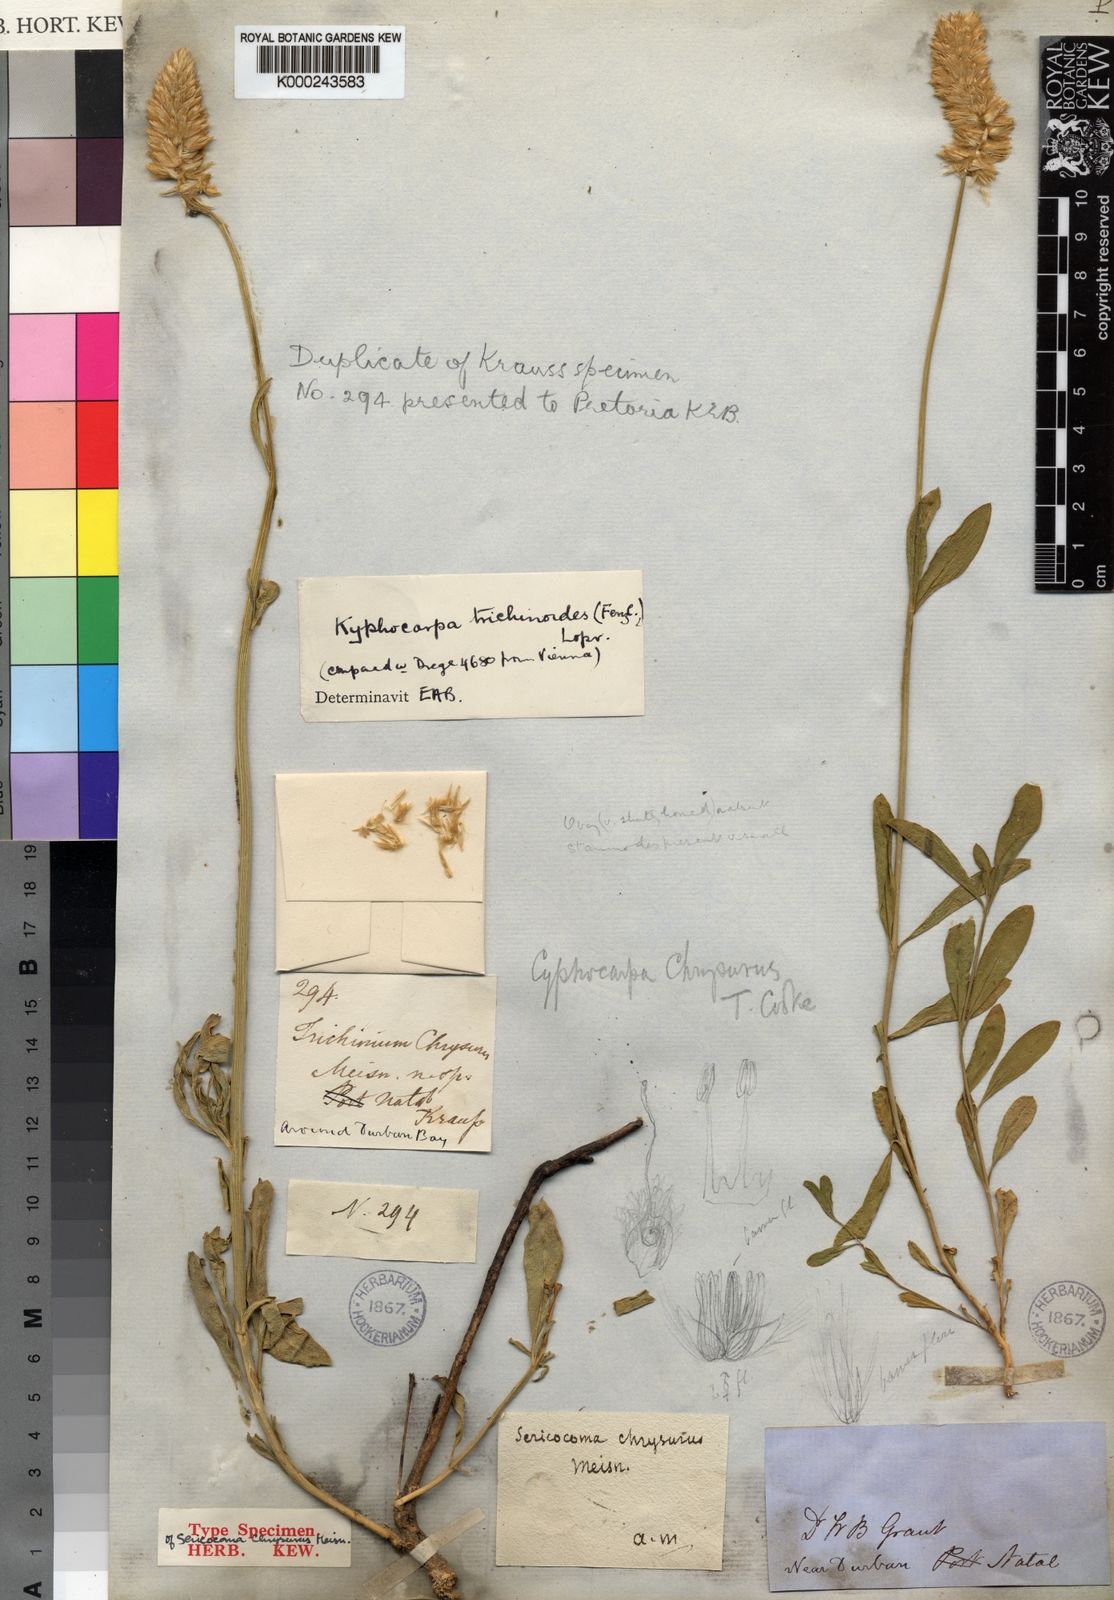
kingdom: Plantae
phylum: Tracheophyta
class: Magnoliopsida
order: Caryophyllales
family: Amaranthaceae
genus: Kyphocarpa
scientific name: Kyphocarpa
